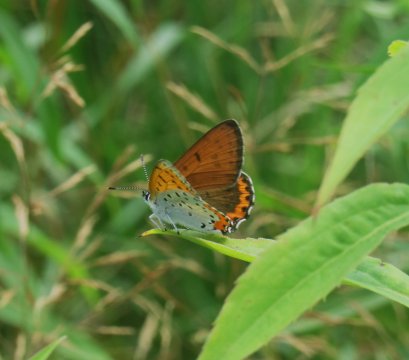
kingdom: Animalia
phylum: Arthropoda
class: Insecta
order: Lepidoptera
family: Sesiidae
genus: Sesia
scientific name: Sesia Lycaena hyllus
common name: Bronze Copper
